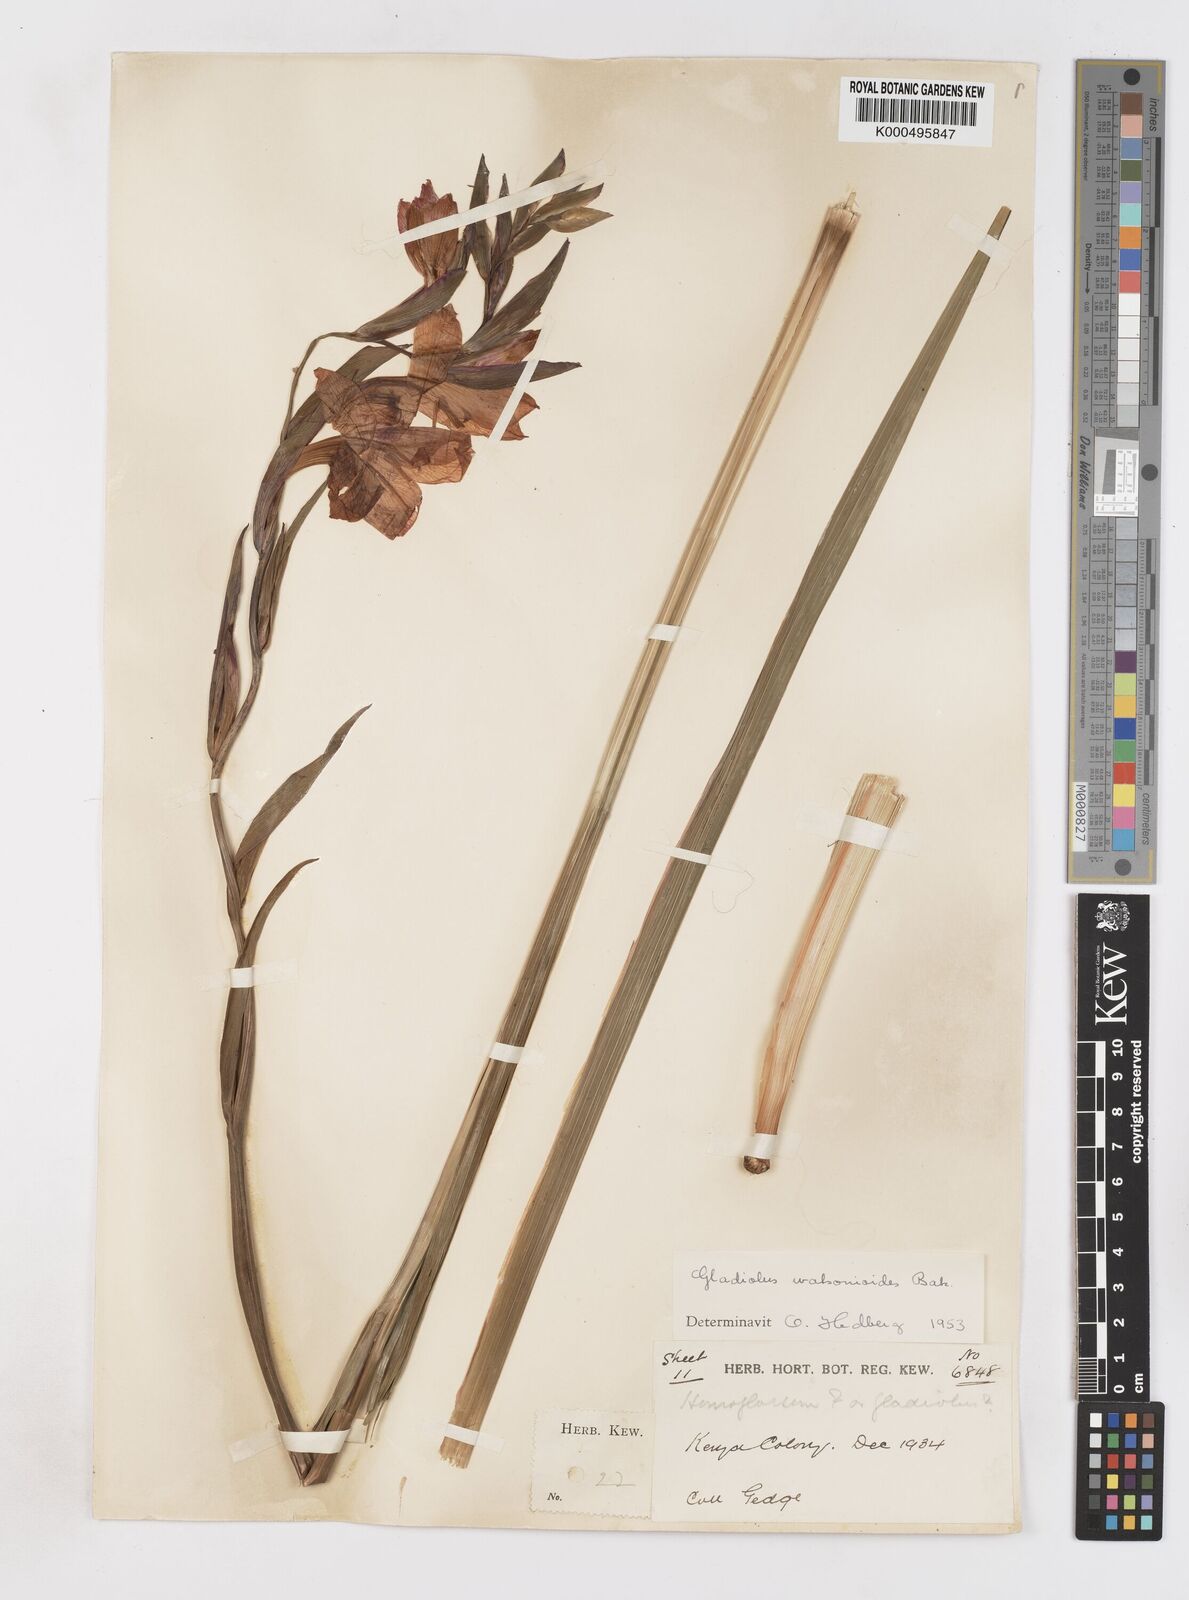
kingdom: Plantae
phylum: Tracheophyta
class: Liliopsida
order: Asparagales
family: Iridaceae
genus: Gladiolus
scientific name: Gladiolus watsonioides
